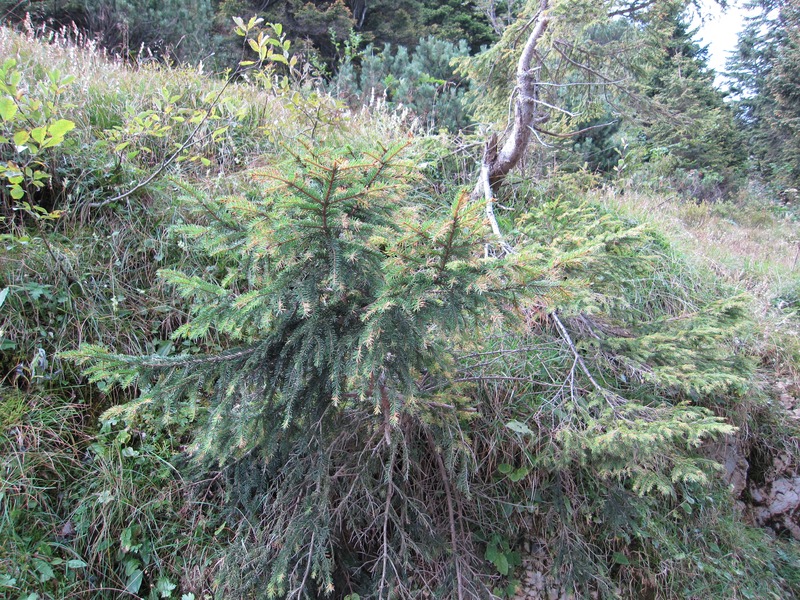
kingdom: Fungi
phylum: Basidiomycota
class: Pucciniomycetes
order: Pucciniales
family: Coleosporiaceae
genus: Chrysomyxa
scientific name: Chrysomyxa rhododendri
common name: Rhododendron-spruce needle rust
